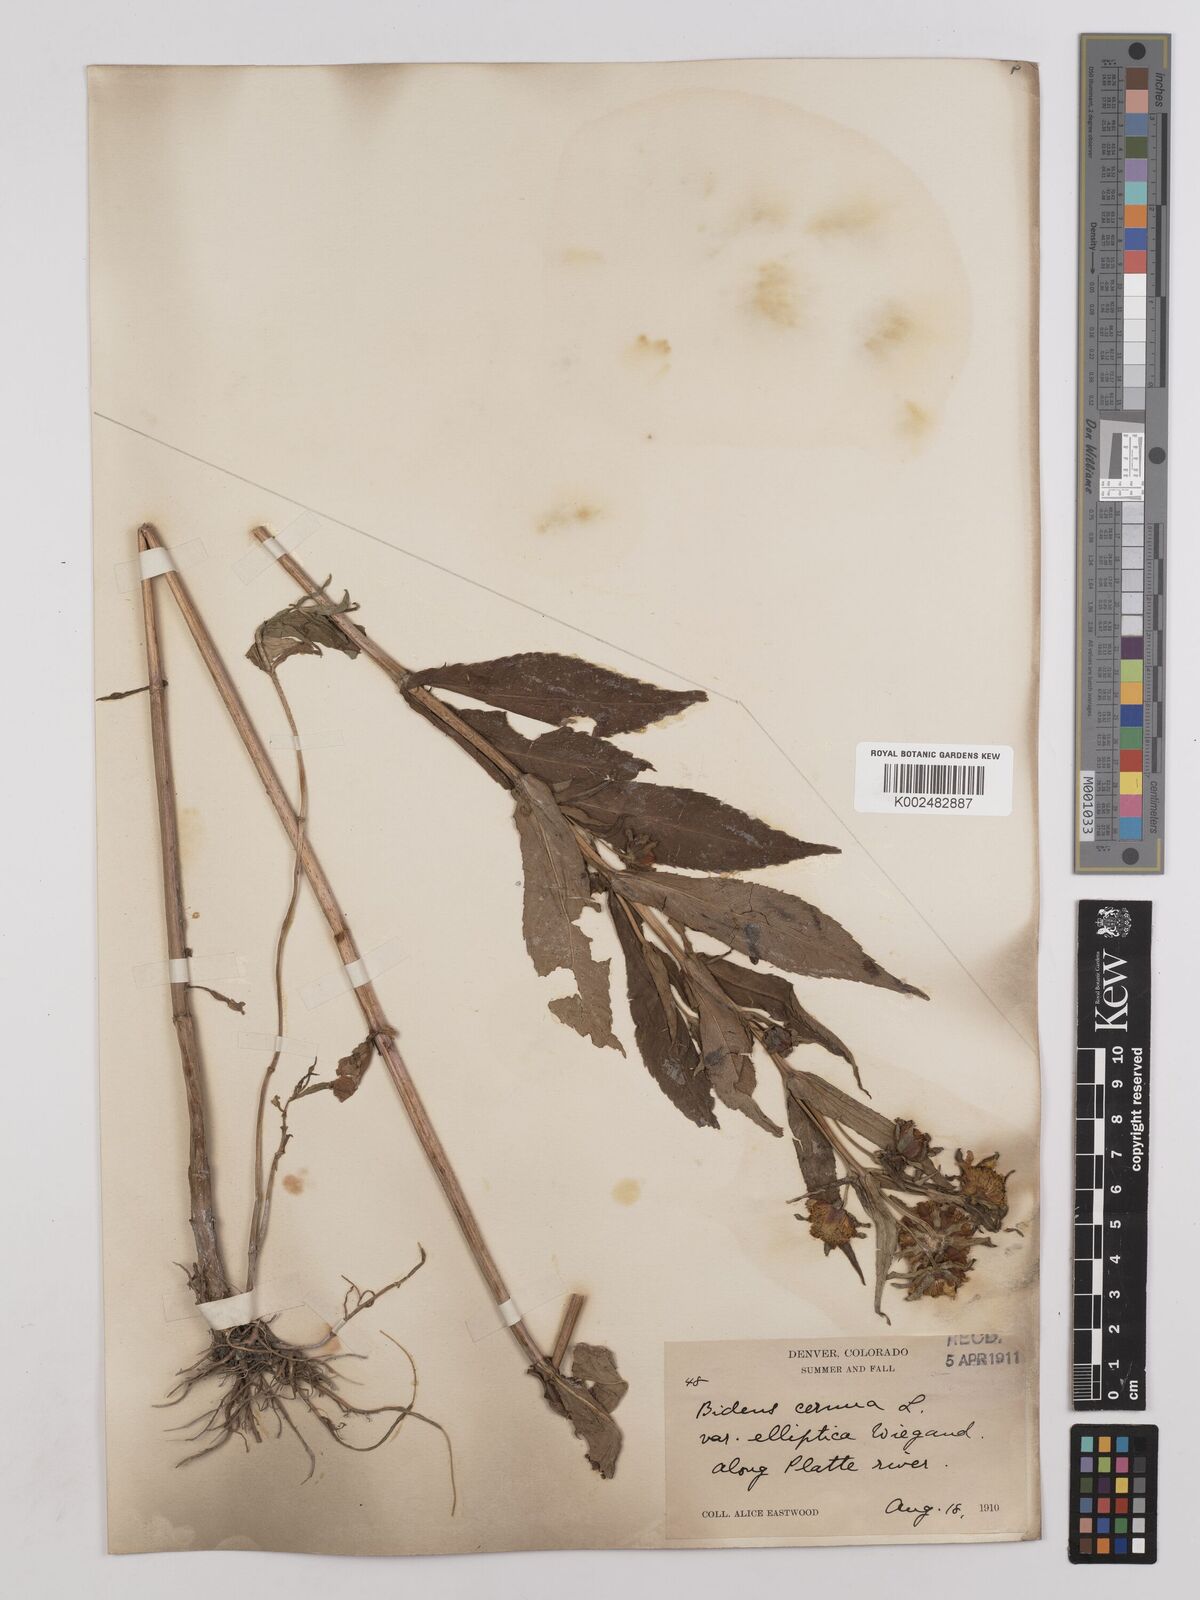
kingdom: Plantae
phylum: Tracheophyta
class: Magnoliopsida
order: Asterales
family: Asteraceae
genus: Bidens
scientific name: Bidens cernua
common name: Nodding bur-marigold
